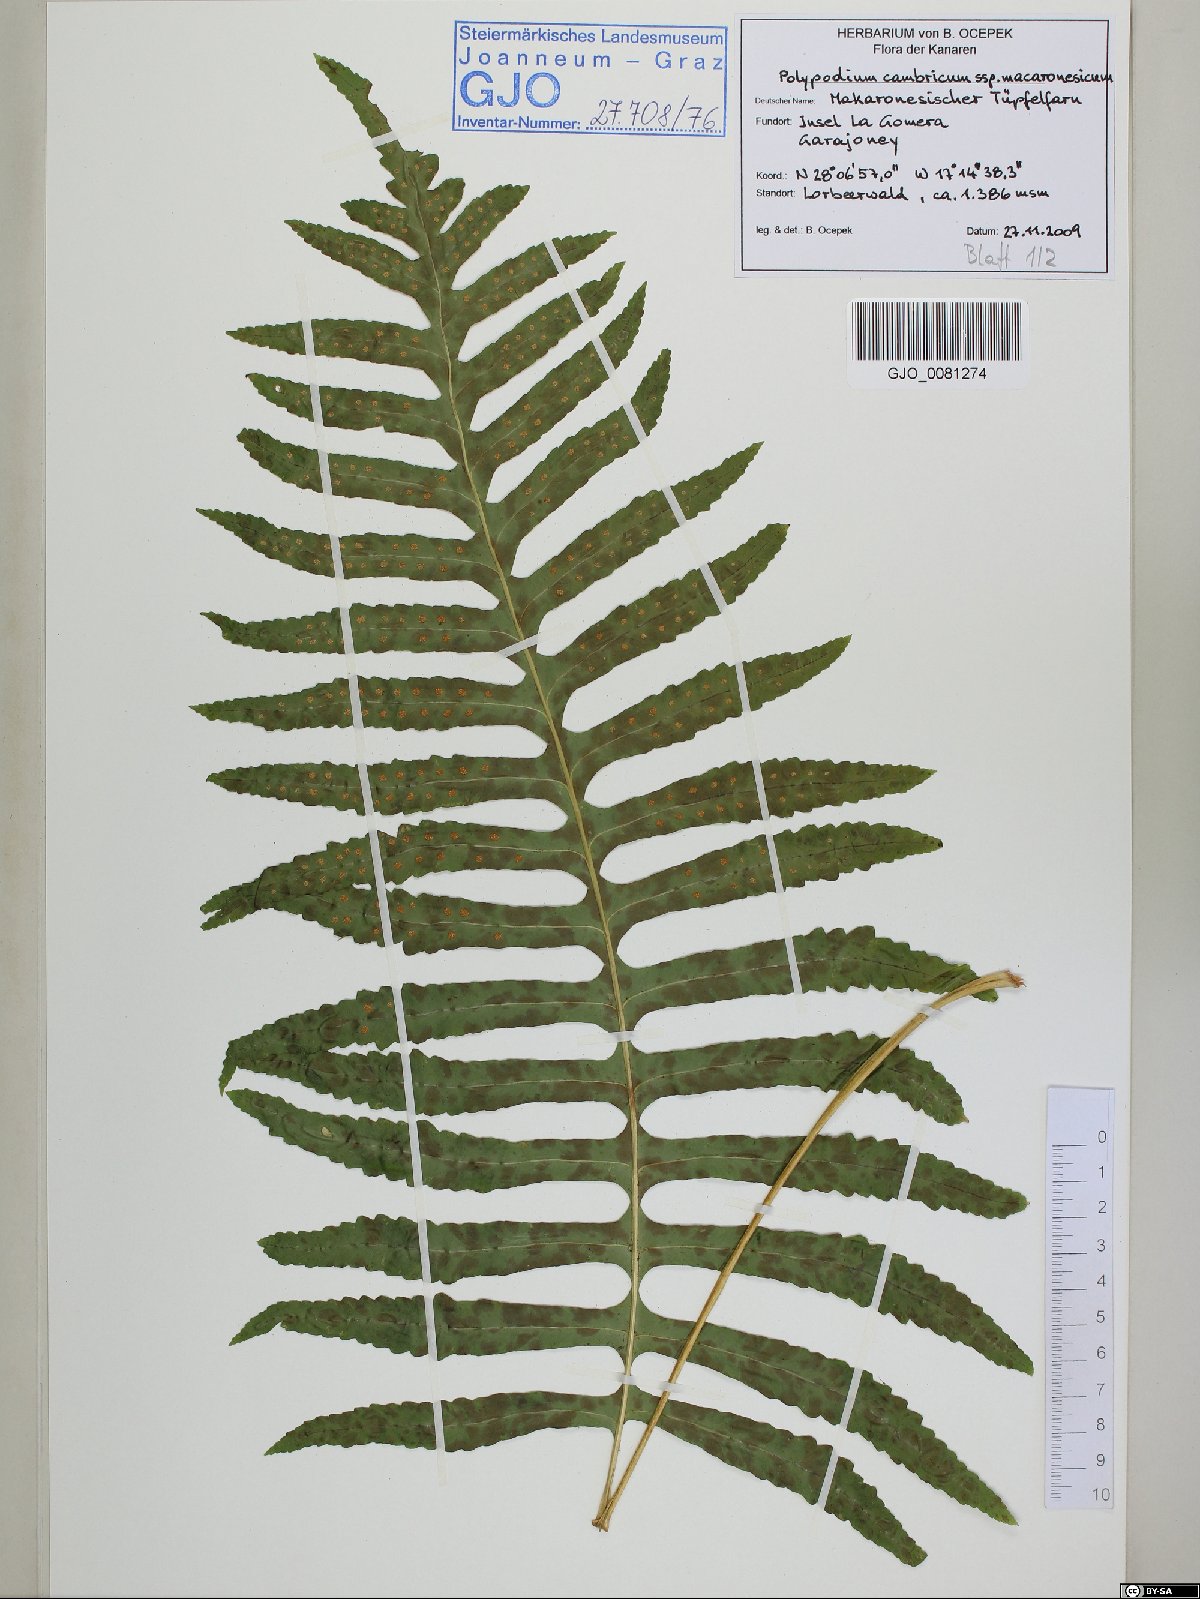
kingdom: Plantae
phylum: Tracheophyta
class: Polypodiopsida
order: Polypodiales
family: Polypodiaceae
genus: Polypodium
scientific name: Polypodium macaronesicum
